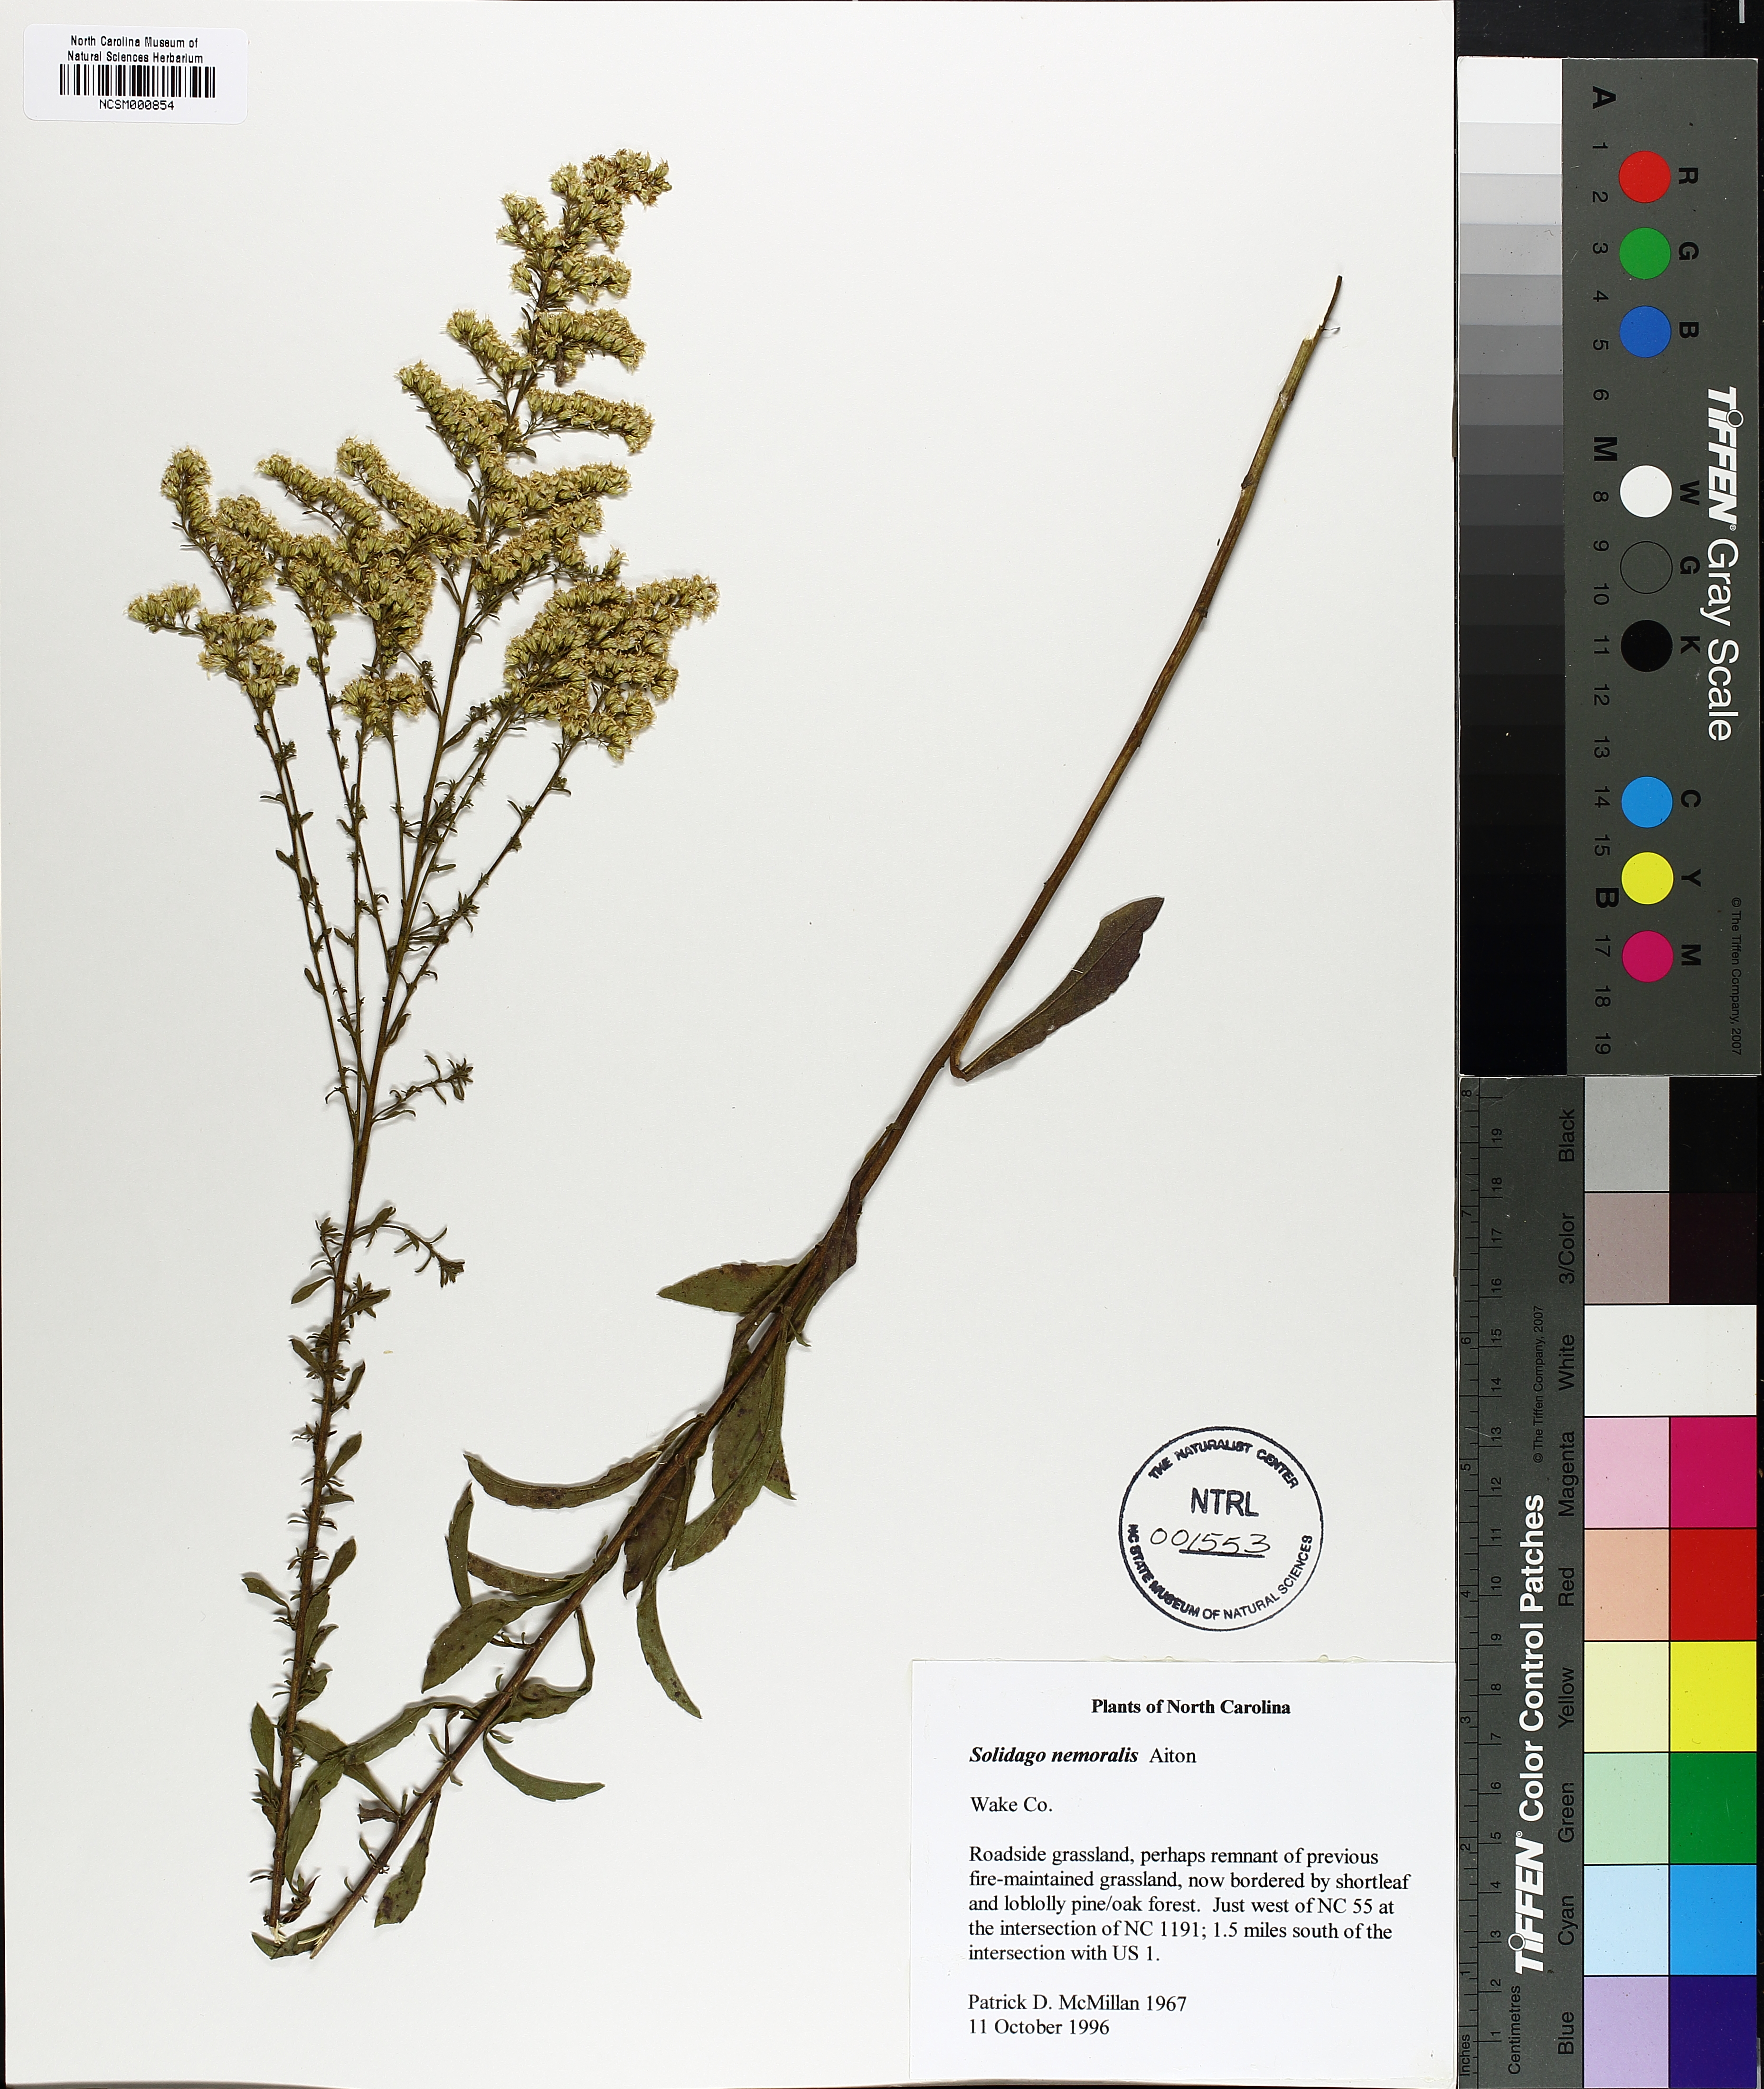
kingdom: Plantae
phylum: Tracheophyta
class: Magnoliopsida
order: Asterales
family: Asteraceae
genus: Solidago
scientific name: Solidago nemoralis
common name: Grey goldenrod
